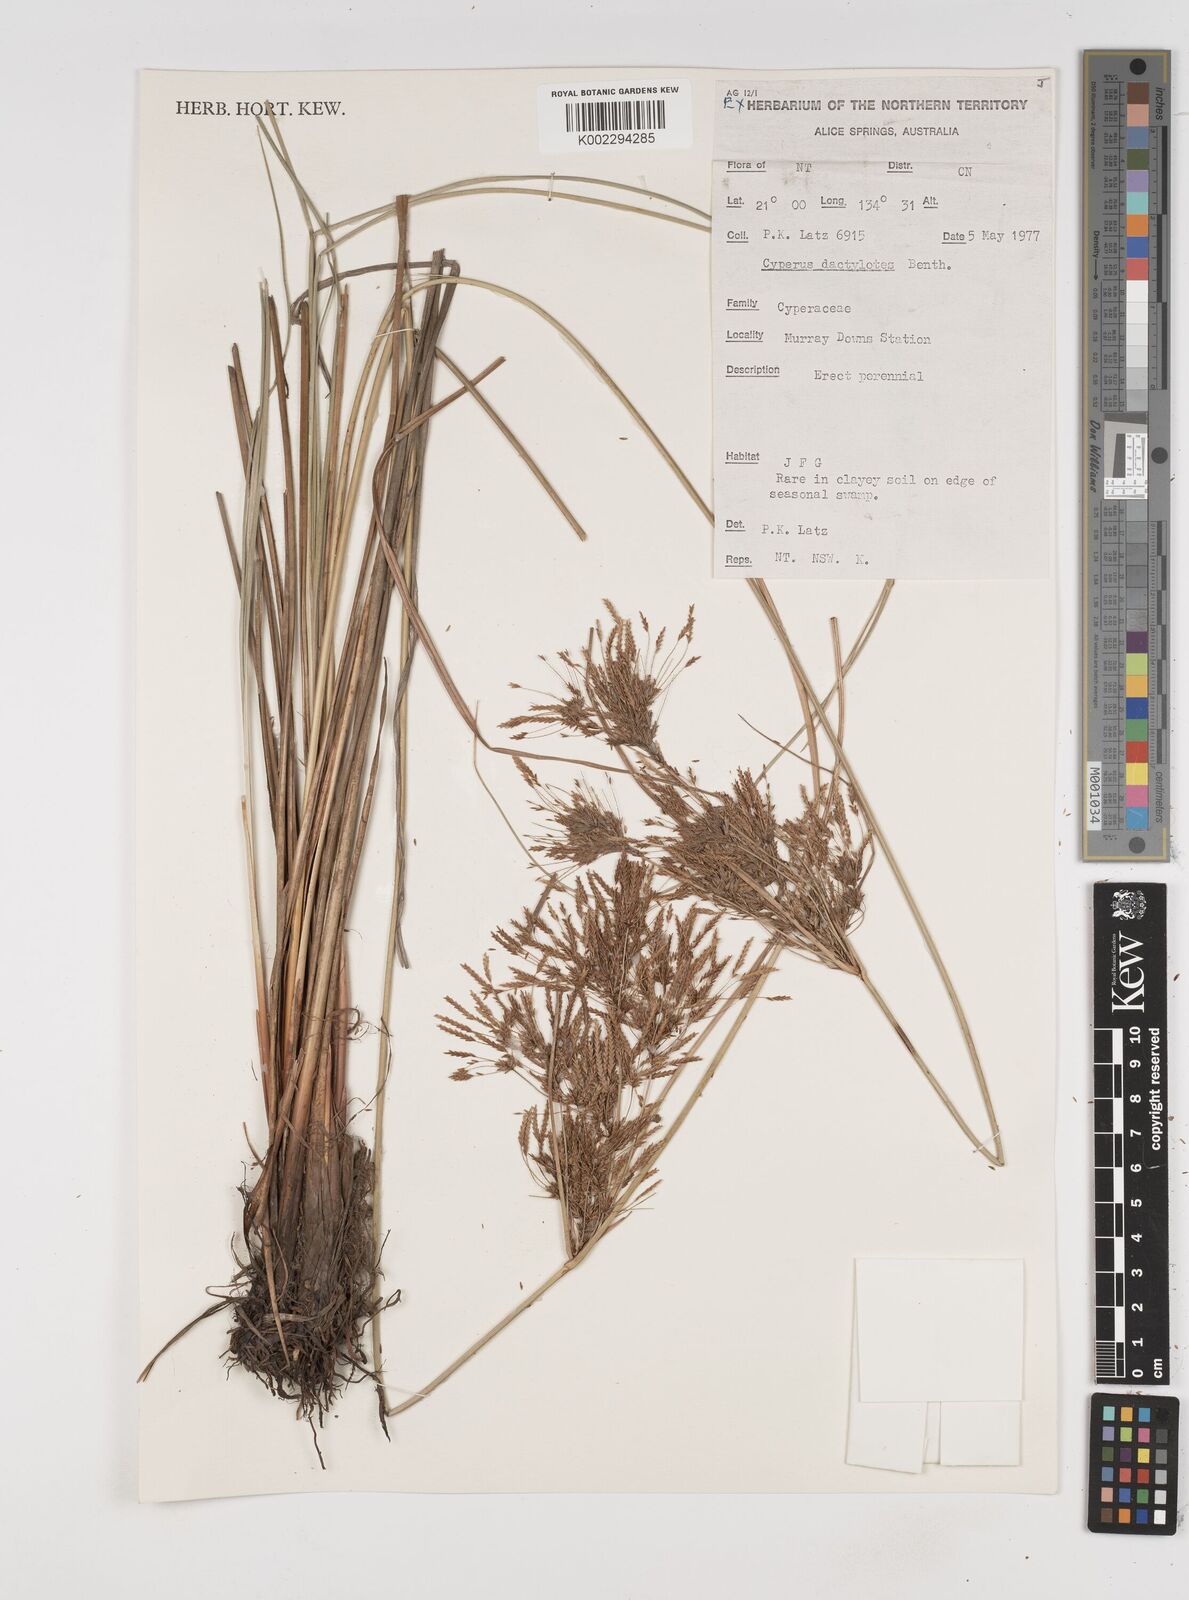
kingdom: Plantae
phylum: Tracheophyta
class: Liliopsida
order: Poales
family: Cyperaceae
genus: Cyperus
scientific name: Cyperus dactylotes
